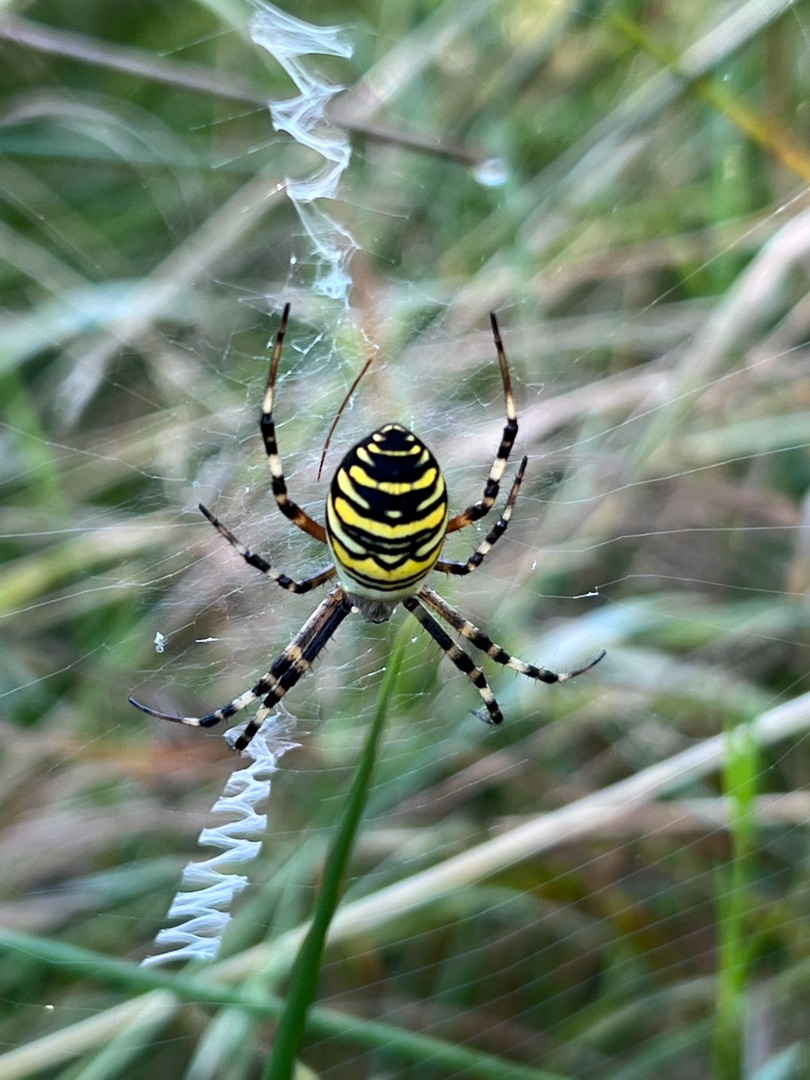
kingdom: Animalia
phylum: Arthropoda
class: Arachnida
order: Araneae
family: Araneidae
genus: Argiope
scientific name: Argiope bruennichi
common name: Hvepseedderkop
